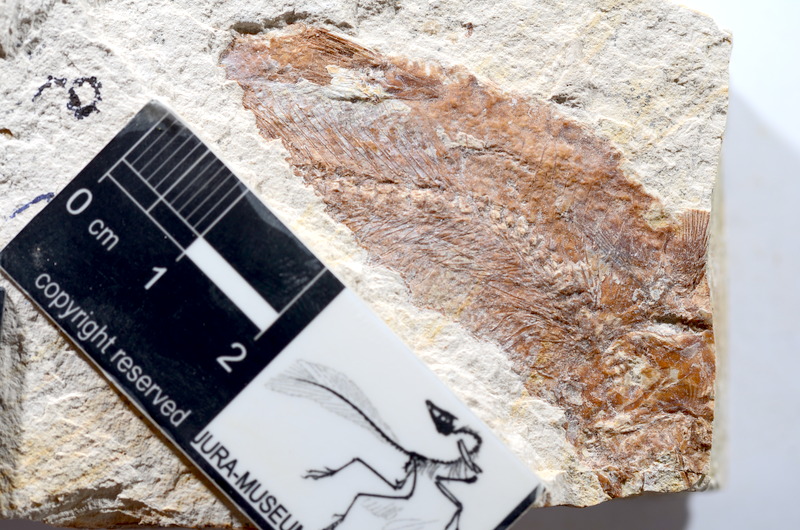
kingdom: Animalia
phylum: Chordata
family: Ascalaboidae
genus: Tharsis
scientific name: Tharsis dubius
